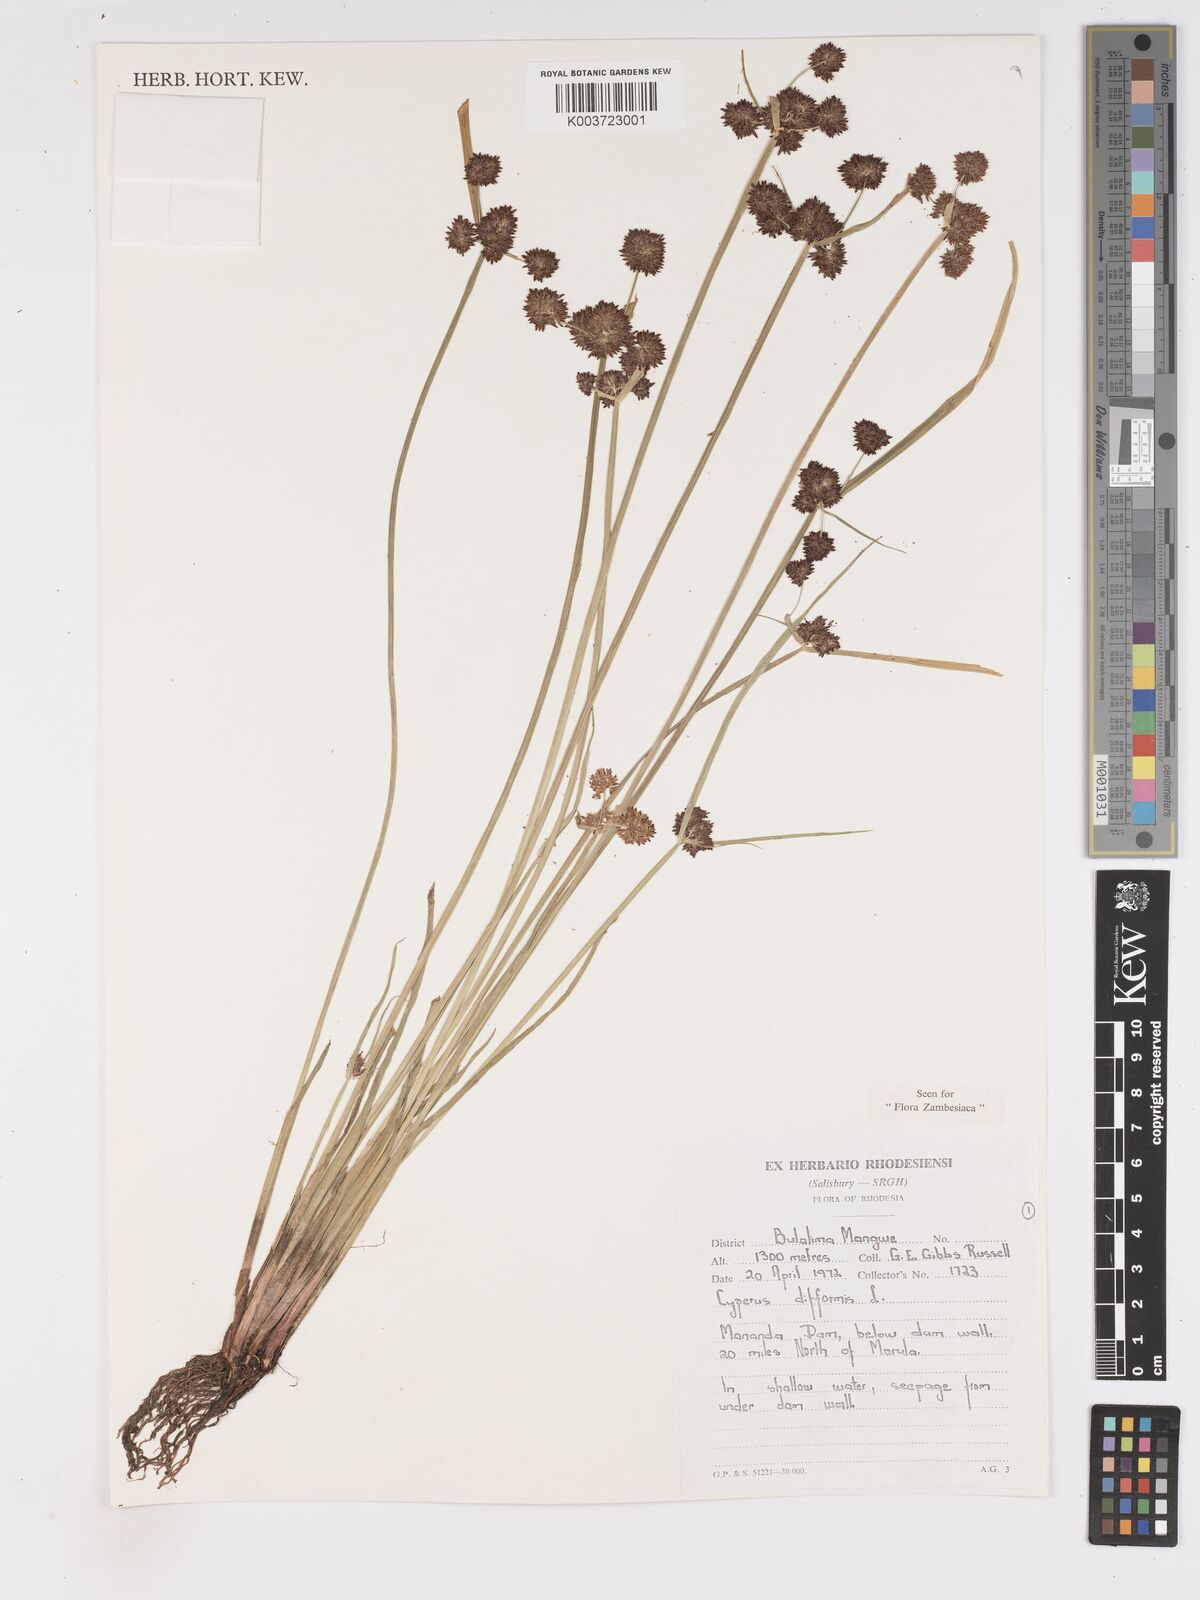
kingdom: Plantae
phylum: Tracheophyta
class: Liliopsida
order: Poales
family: Cyperaceae
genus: Cyperus
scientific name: Cyperus difformis
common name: Variable flatsedge
